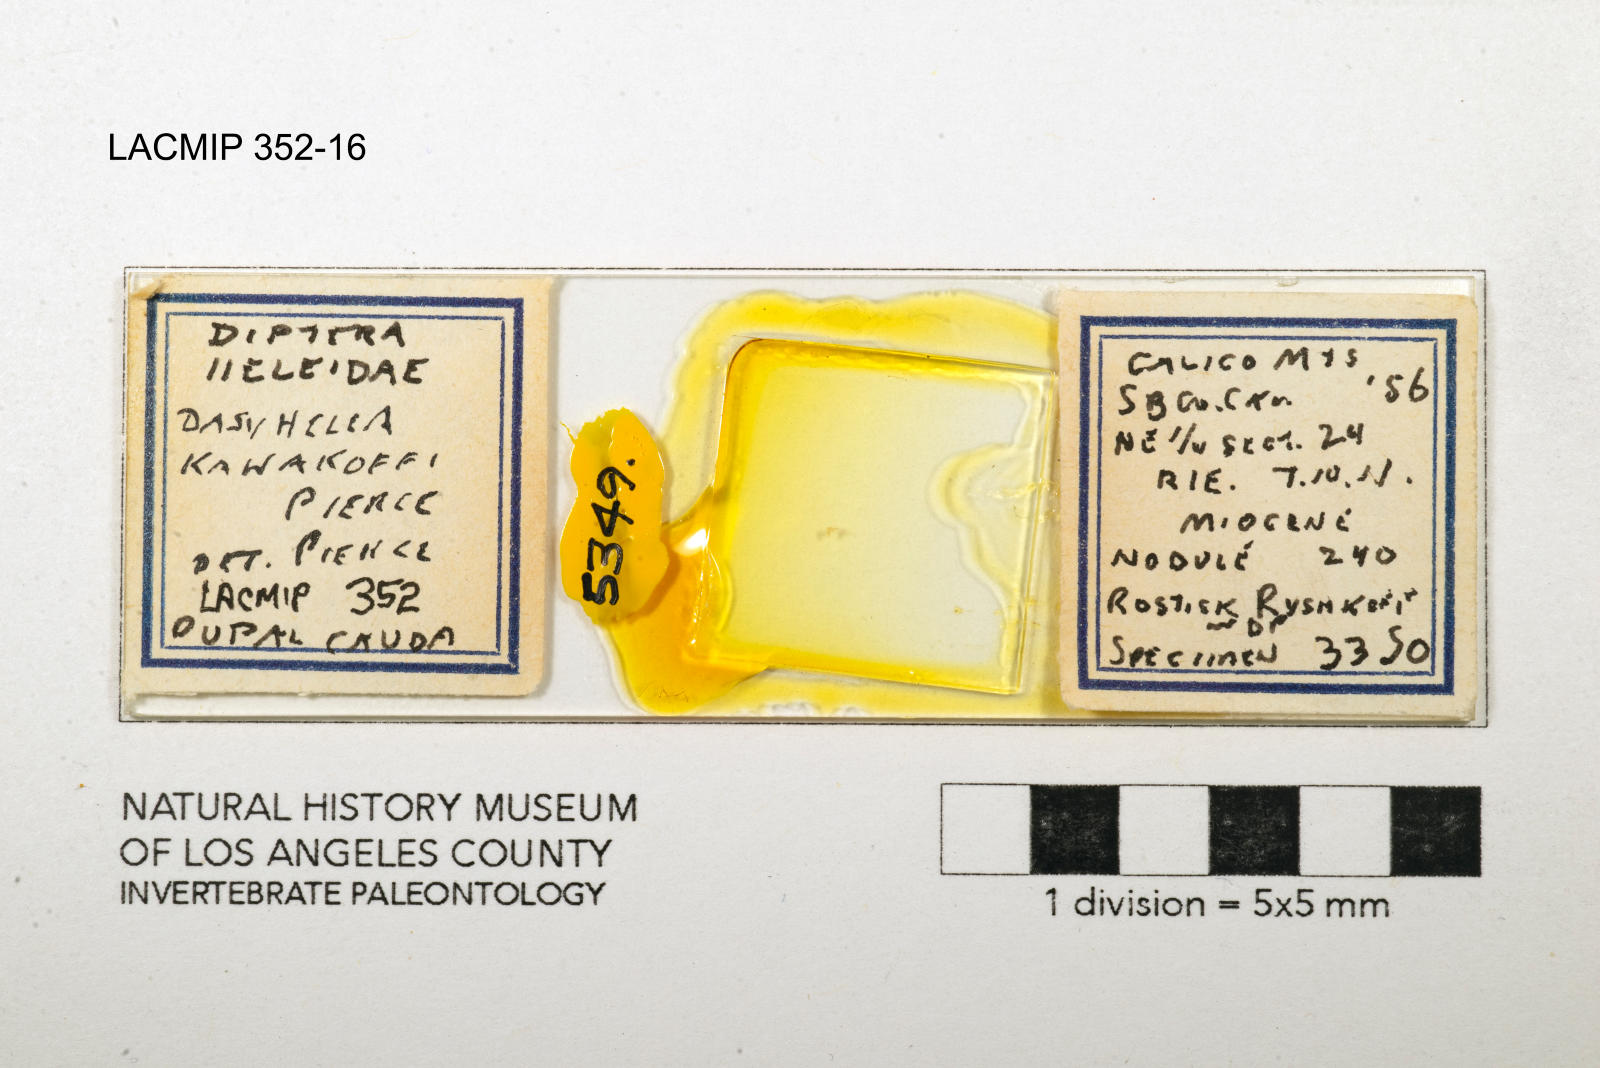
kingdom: Animalia
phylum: Arthropoda
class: Insecta
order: Diptera
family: Ceratopogonidae
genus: Dasyhelea
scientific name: Dasyhelea kanakoffi
